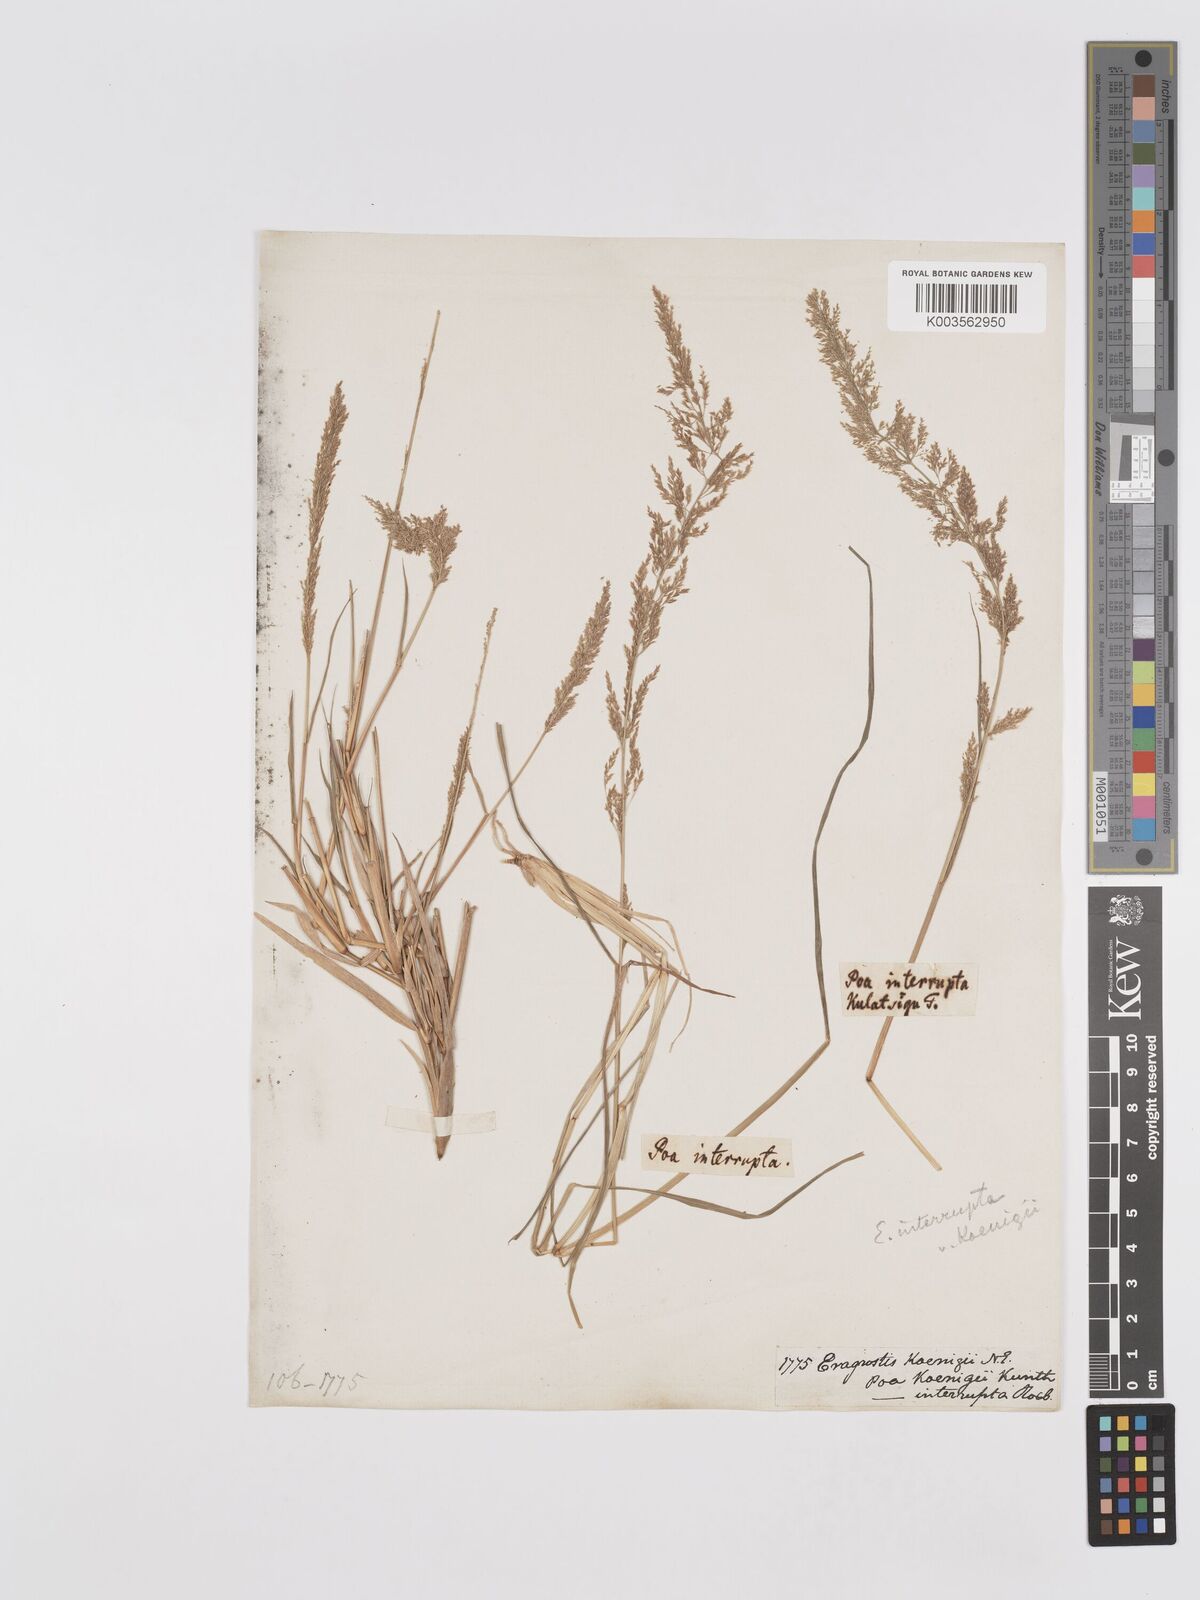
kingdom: Plantae
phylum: Tracheophyta
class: Liliopsida
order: Poales
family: Poaceae
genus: Eragrostis
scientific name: Eragrostis japonica
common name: Pond lovegrass
